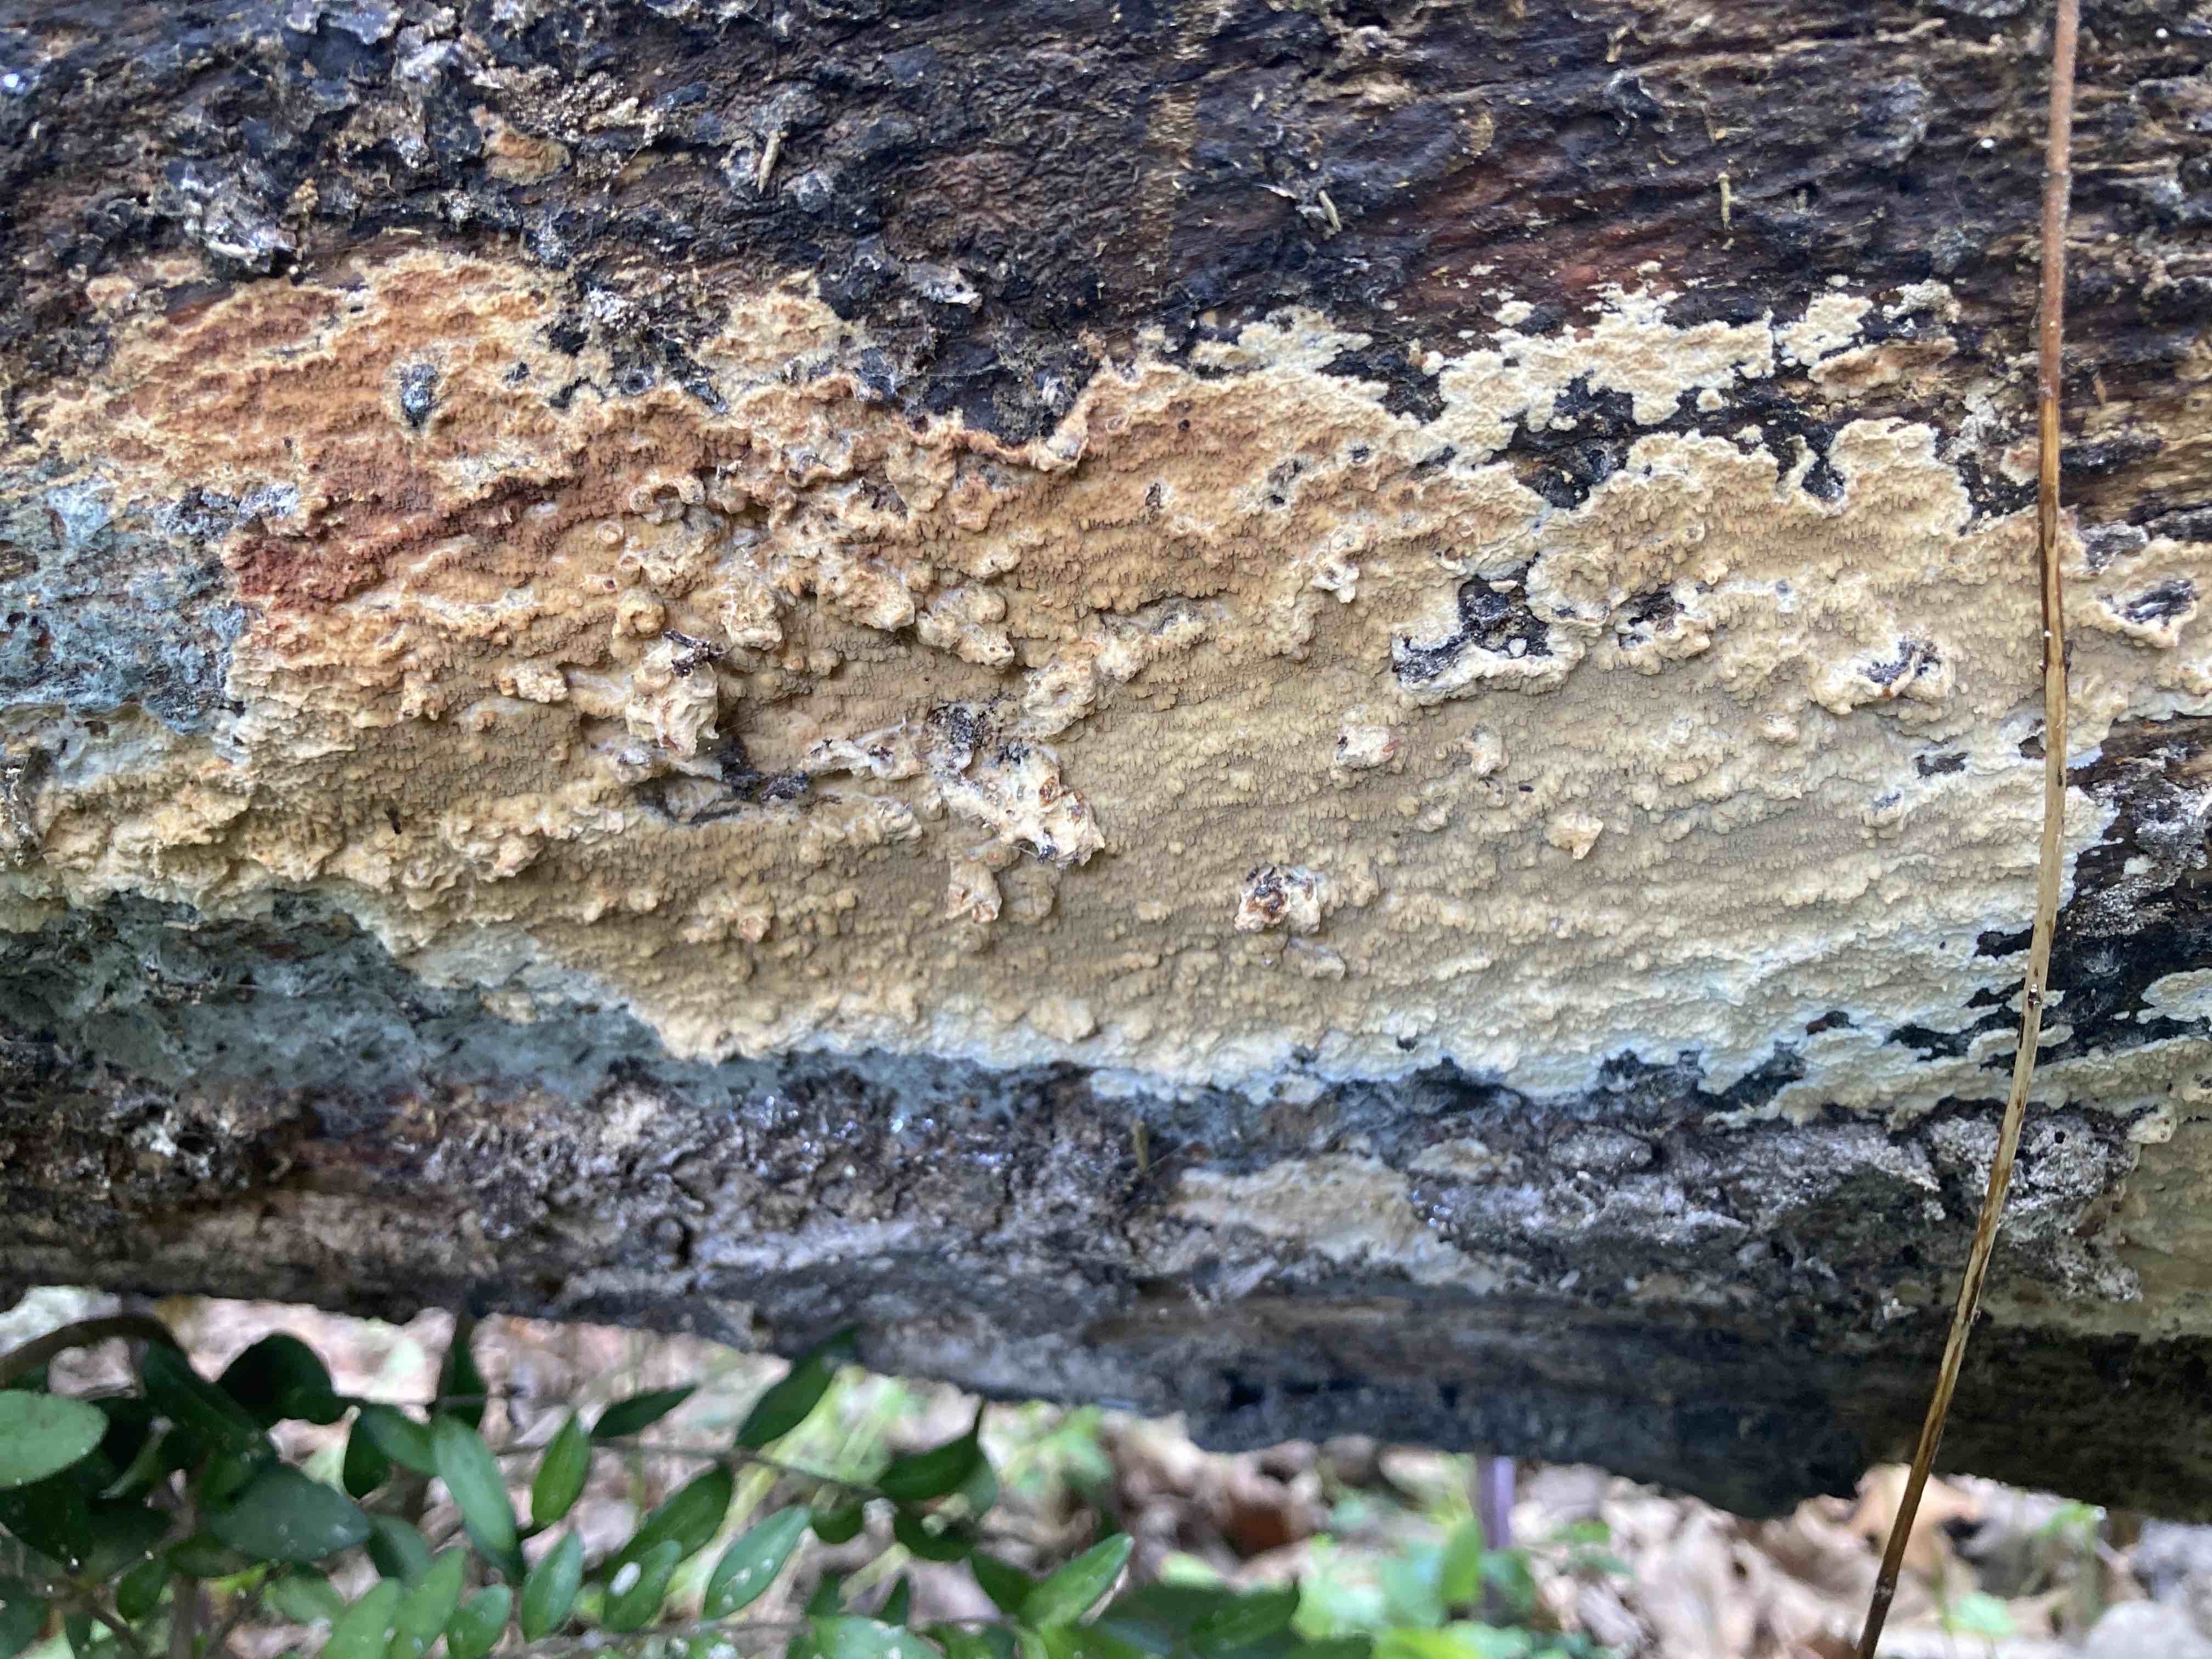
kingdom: Fungi
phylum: Basidiomycota
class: Agaricomycetes
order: Polyporales
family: Meruliaceae
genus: Phlebia
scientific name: Phlebia rufa
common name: ege-åresvamp
